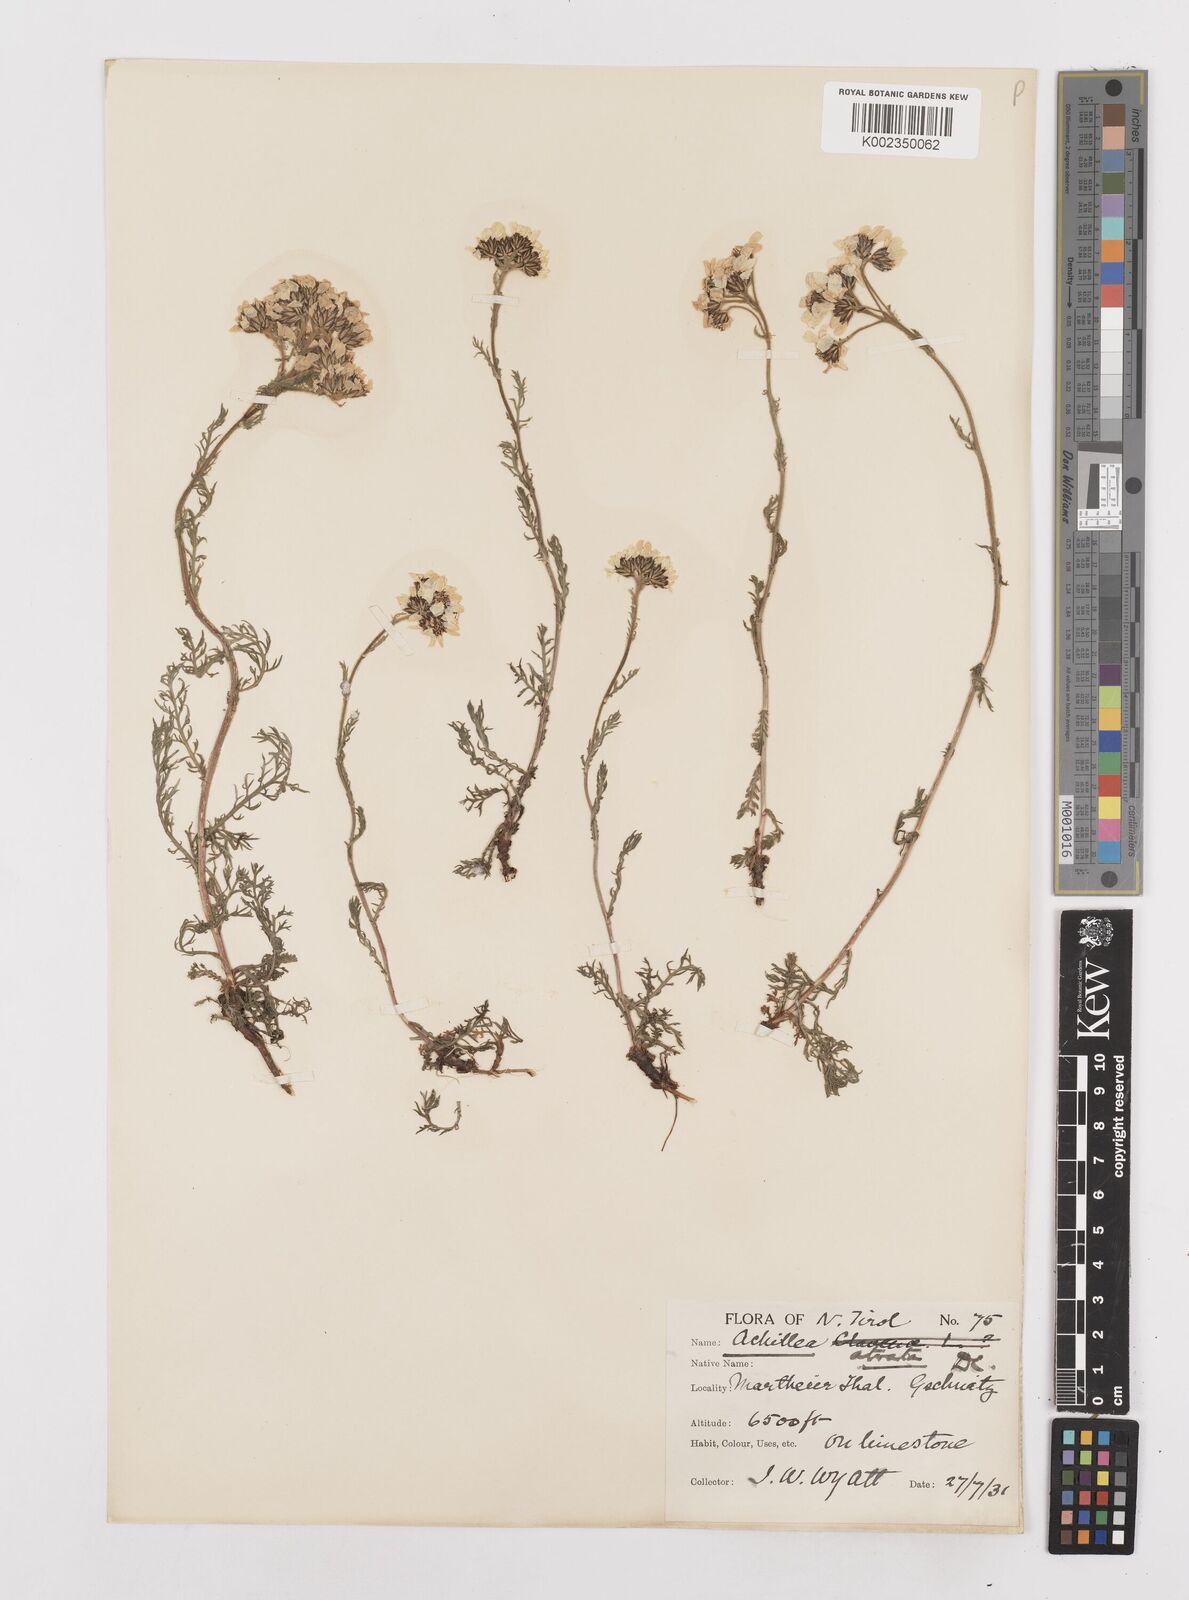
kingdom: Plantae
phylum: Tracheophyta
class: Magnoliopsida
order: Asterales
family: Asteraceae
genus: Achillea
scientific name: Achillea atrata
